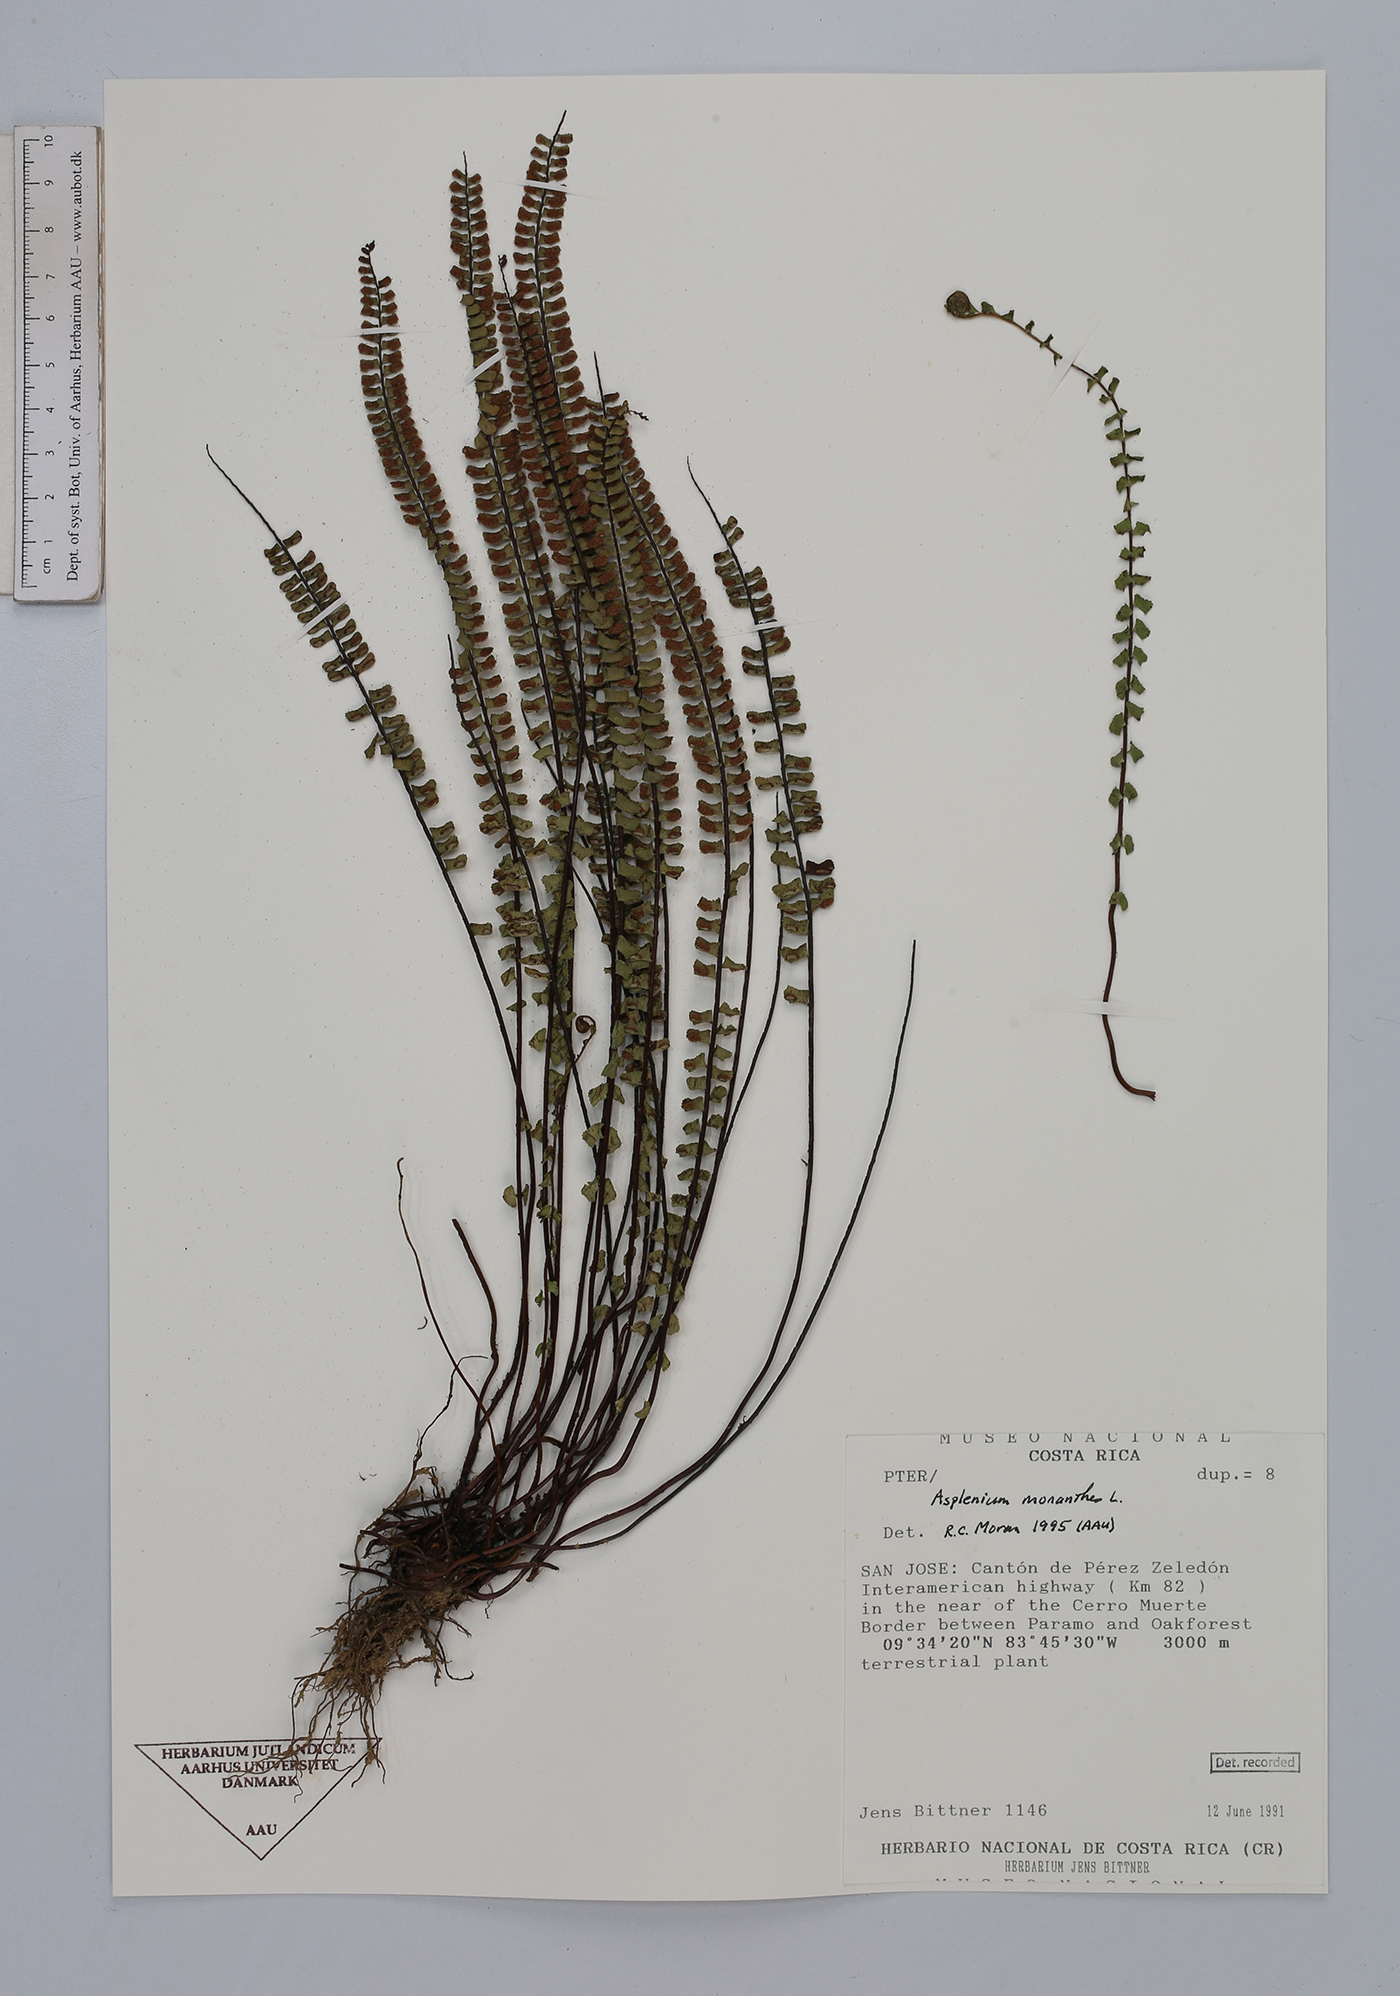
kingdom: Plantae
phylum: Tracheophyta
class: Polypodiopsida
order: Polypodiales
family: Aspleniaceae
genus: Asplenium
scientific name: Asplenium monanthes
